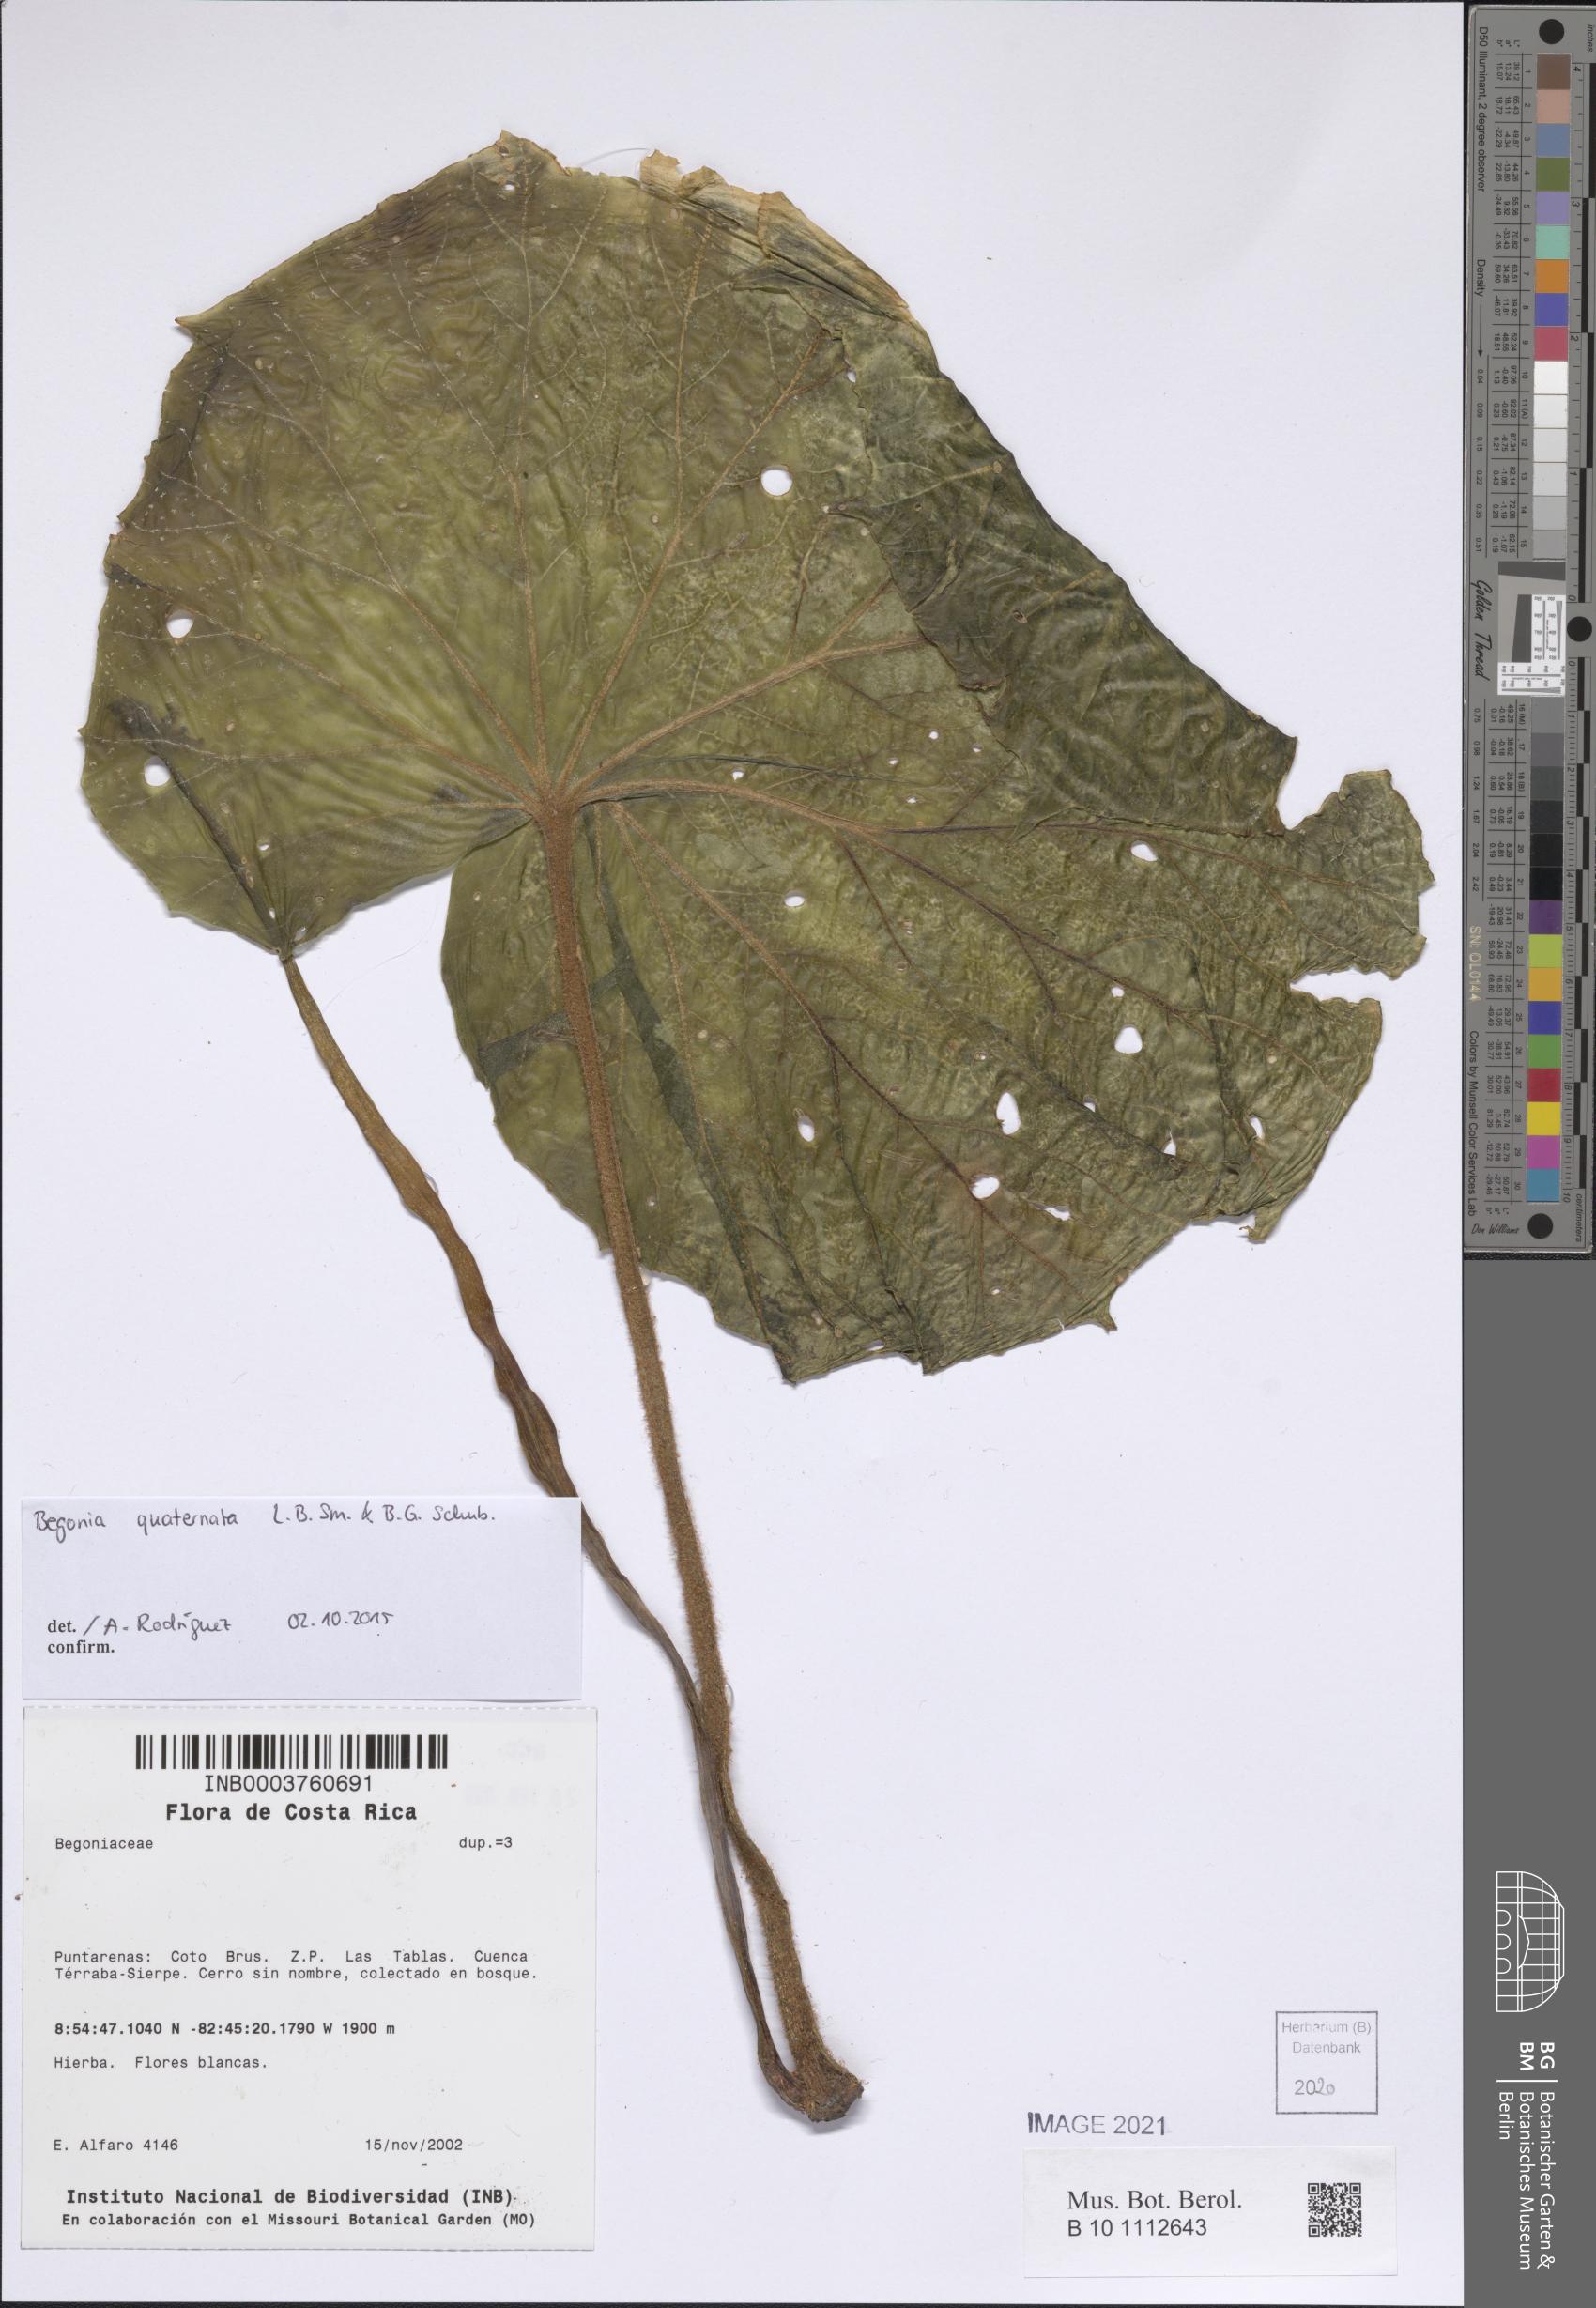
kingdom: Plantae
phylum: Tracheophyta
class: Magnoliopsida
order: Cucurbitales
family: Begoniaceae
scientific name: Begoniaceae
